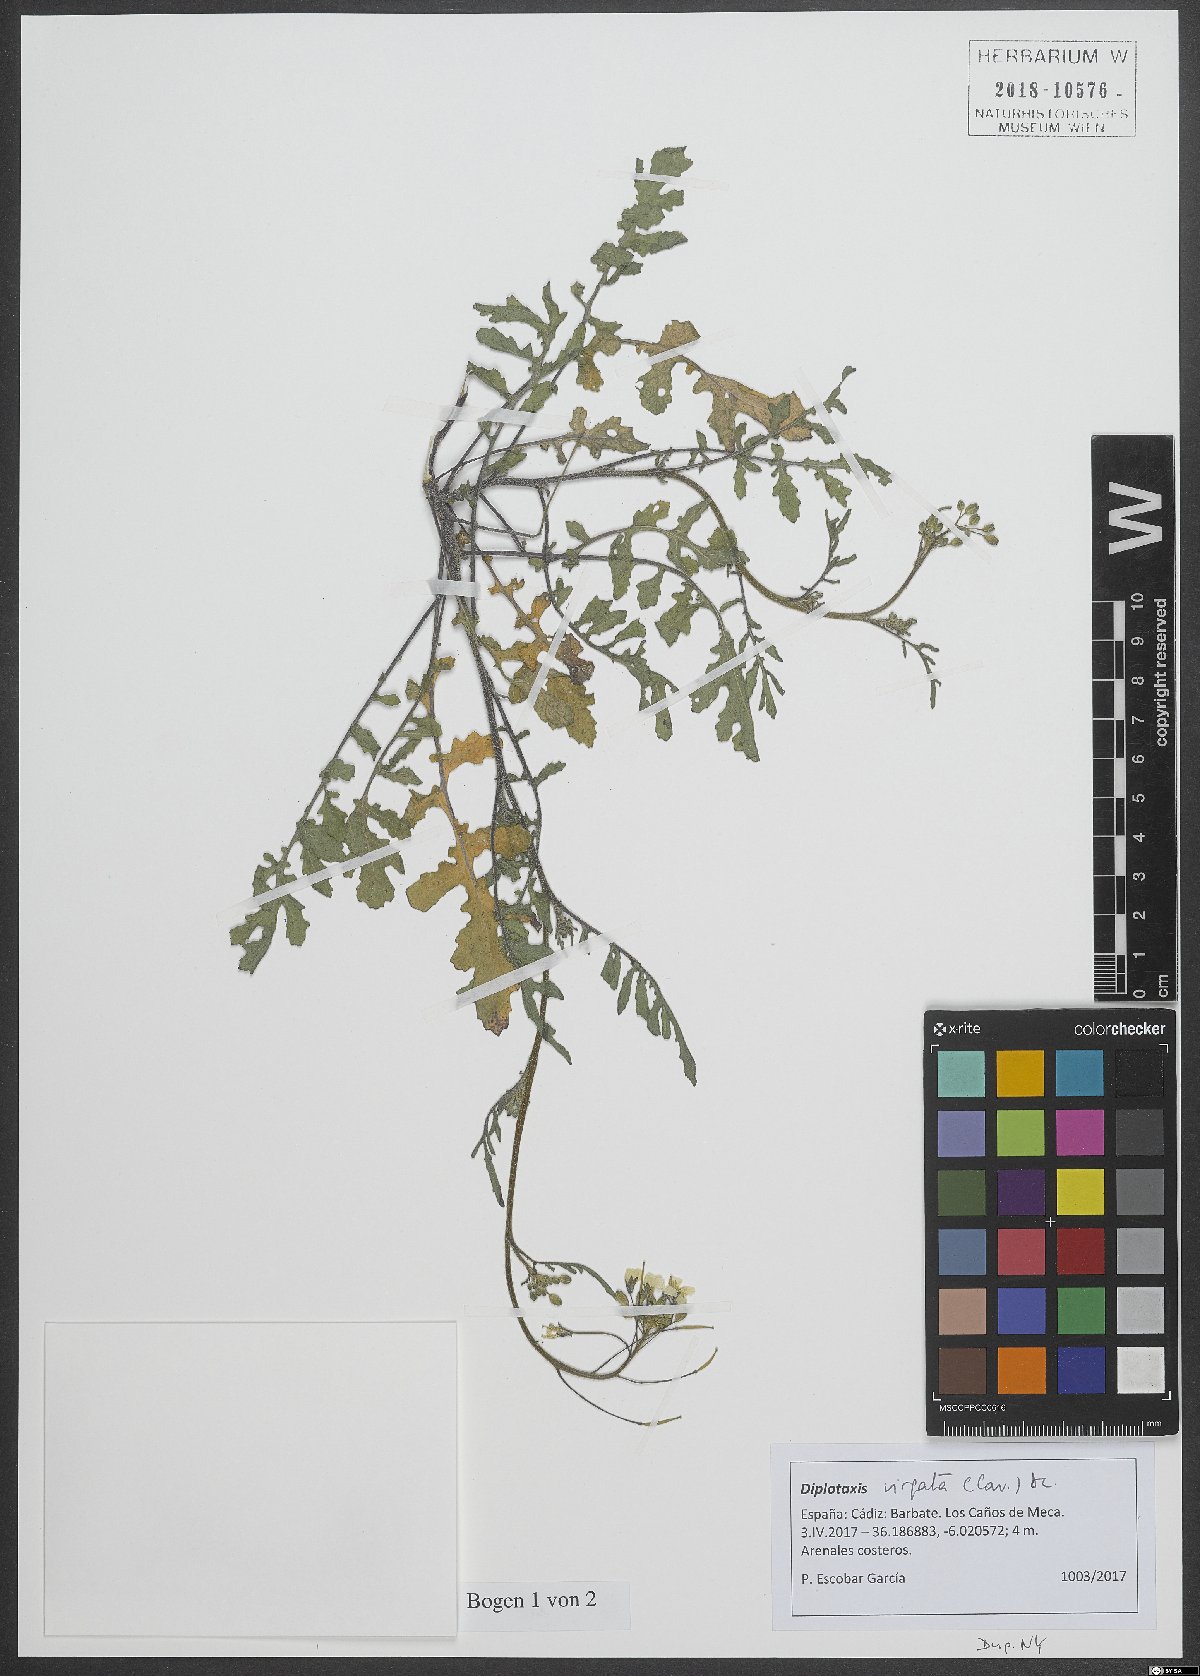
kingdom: Plantae
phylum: Tracheophyta
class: Magnoliopsida
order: Brassicales
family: Brassicaceae
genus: Diplotaxis
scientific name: Diplotaxis virgata
